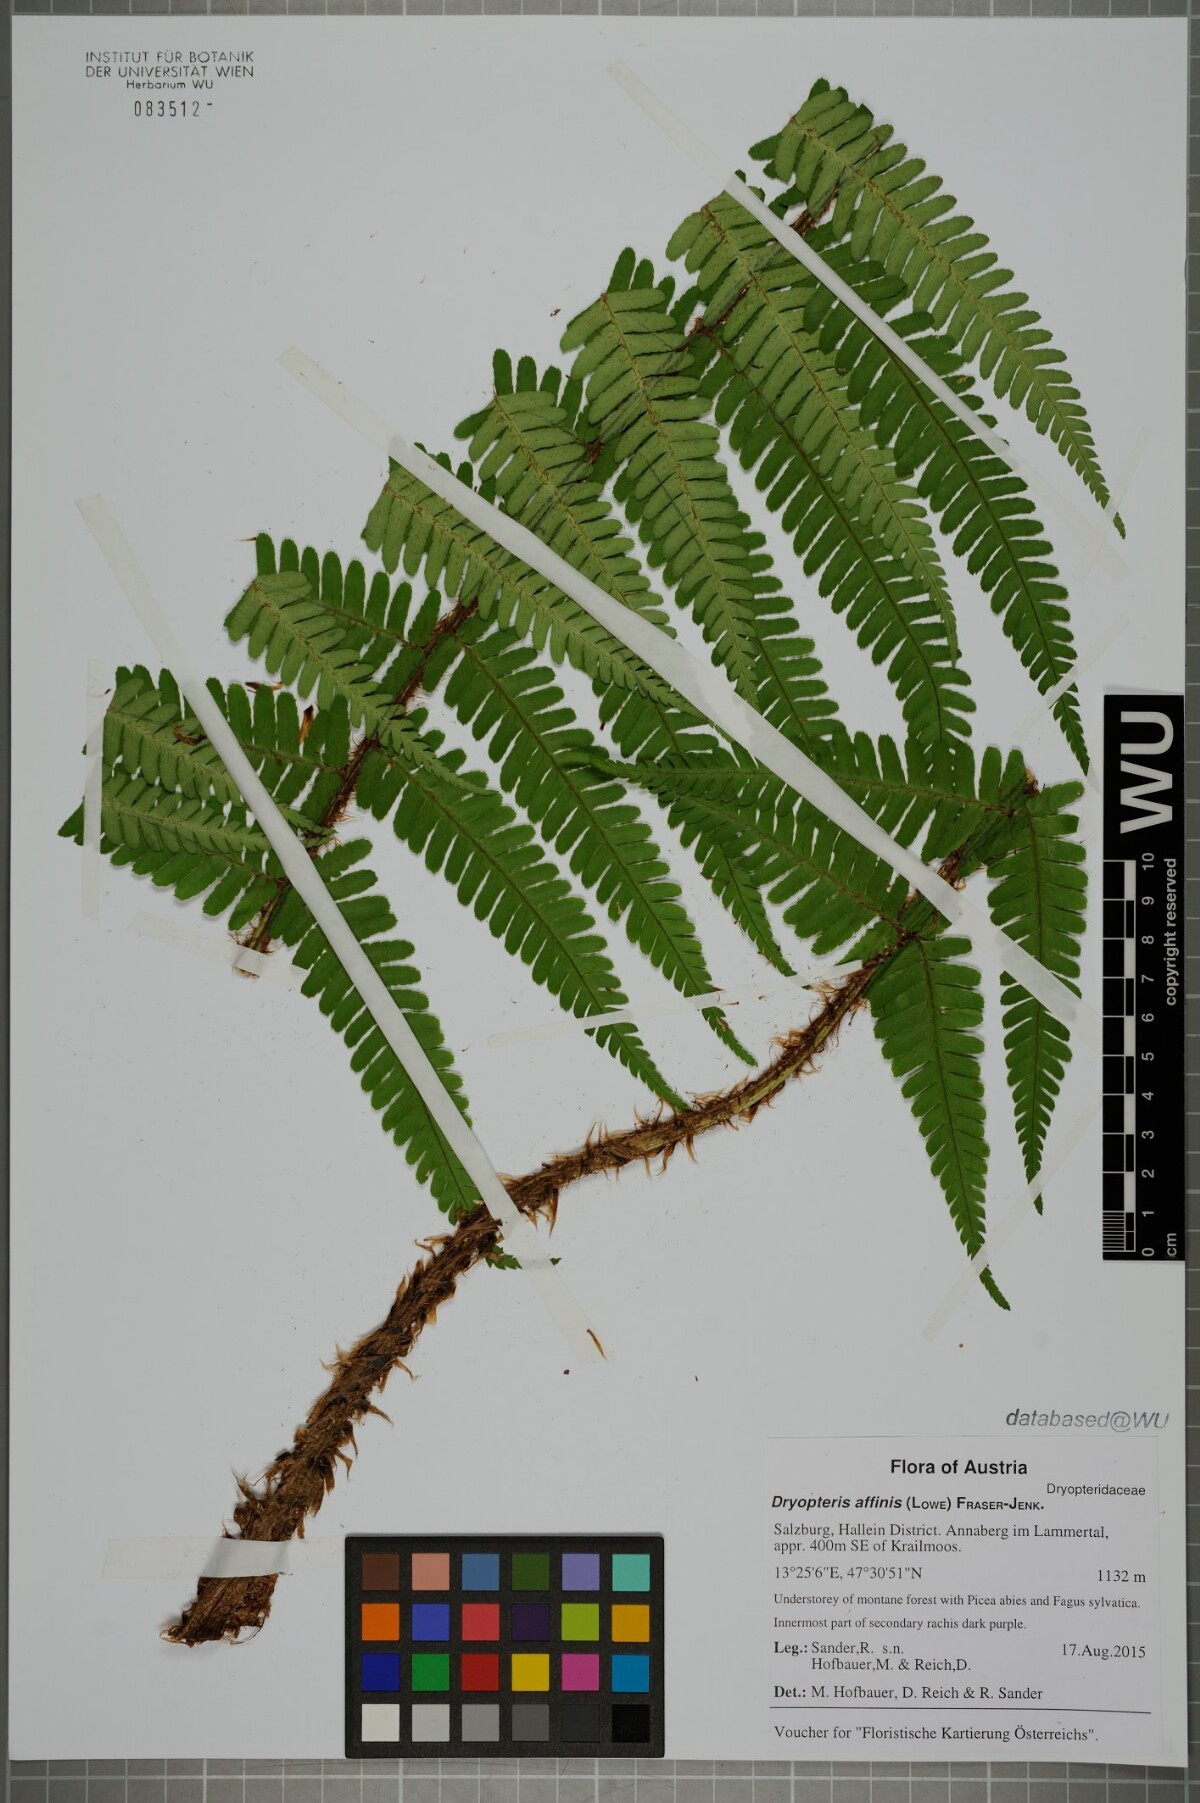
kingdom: Plantae
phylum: Tracheophyta
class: Polypodiopsida
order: Polypodiales
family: Dryopteridaceae
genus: Dryopteris
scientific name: Dryopteris affinis
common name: Scaly male fern
